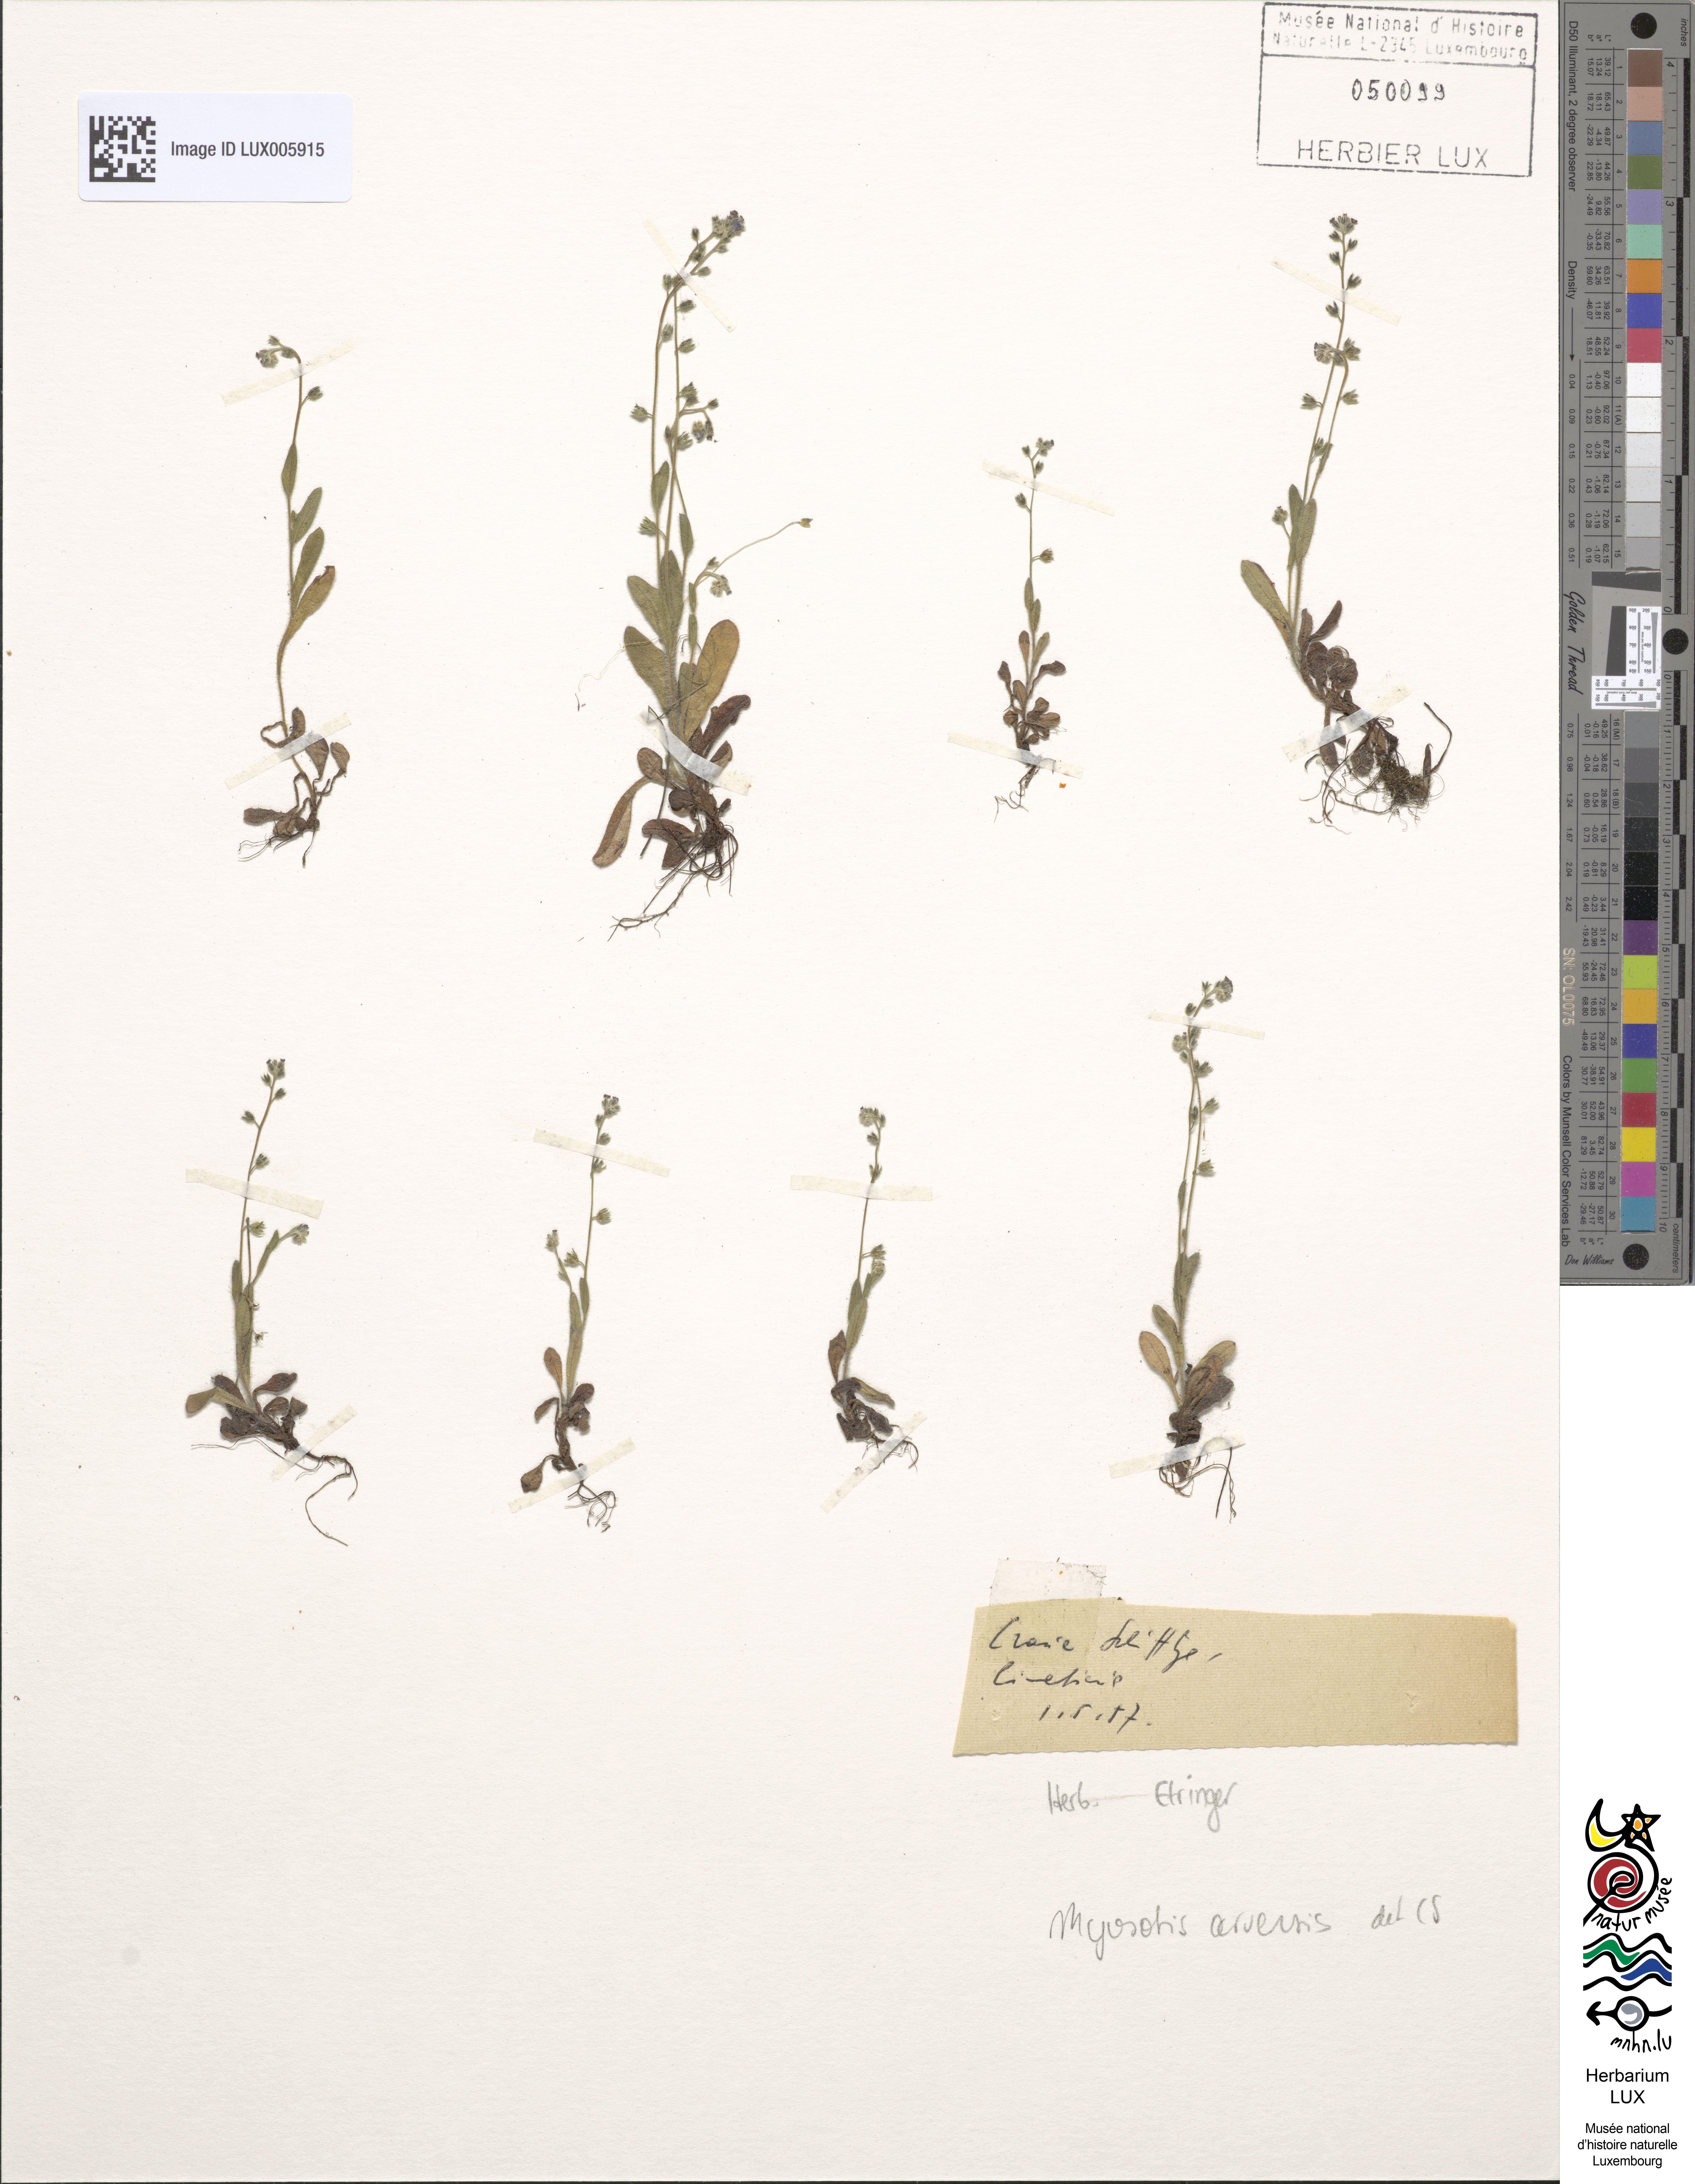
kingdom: Plantae
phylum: Tracheophyta
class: Magnoliopsida
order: Boraginales
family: Boraginaceae
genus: Myosotis
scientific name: Myosotis arvensis
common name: Field forget-me-not
